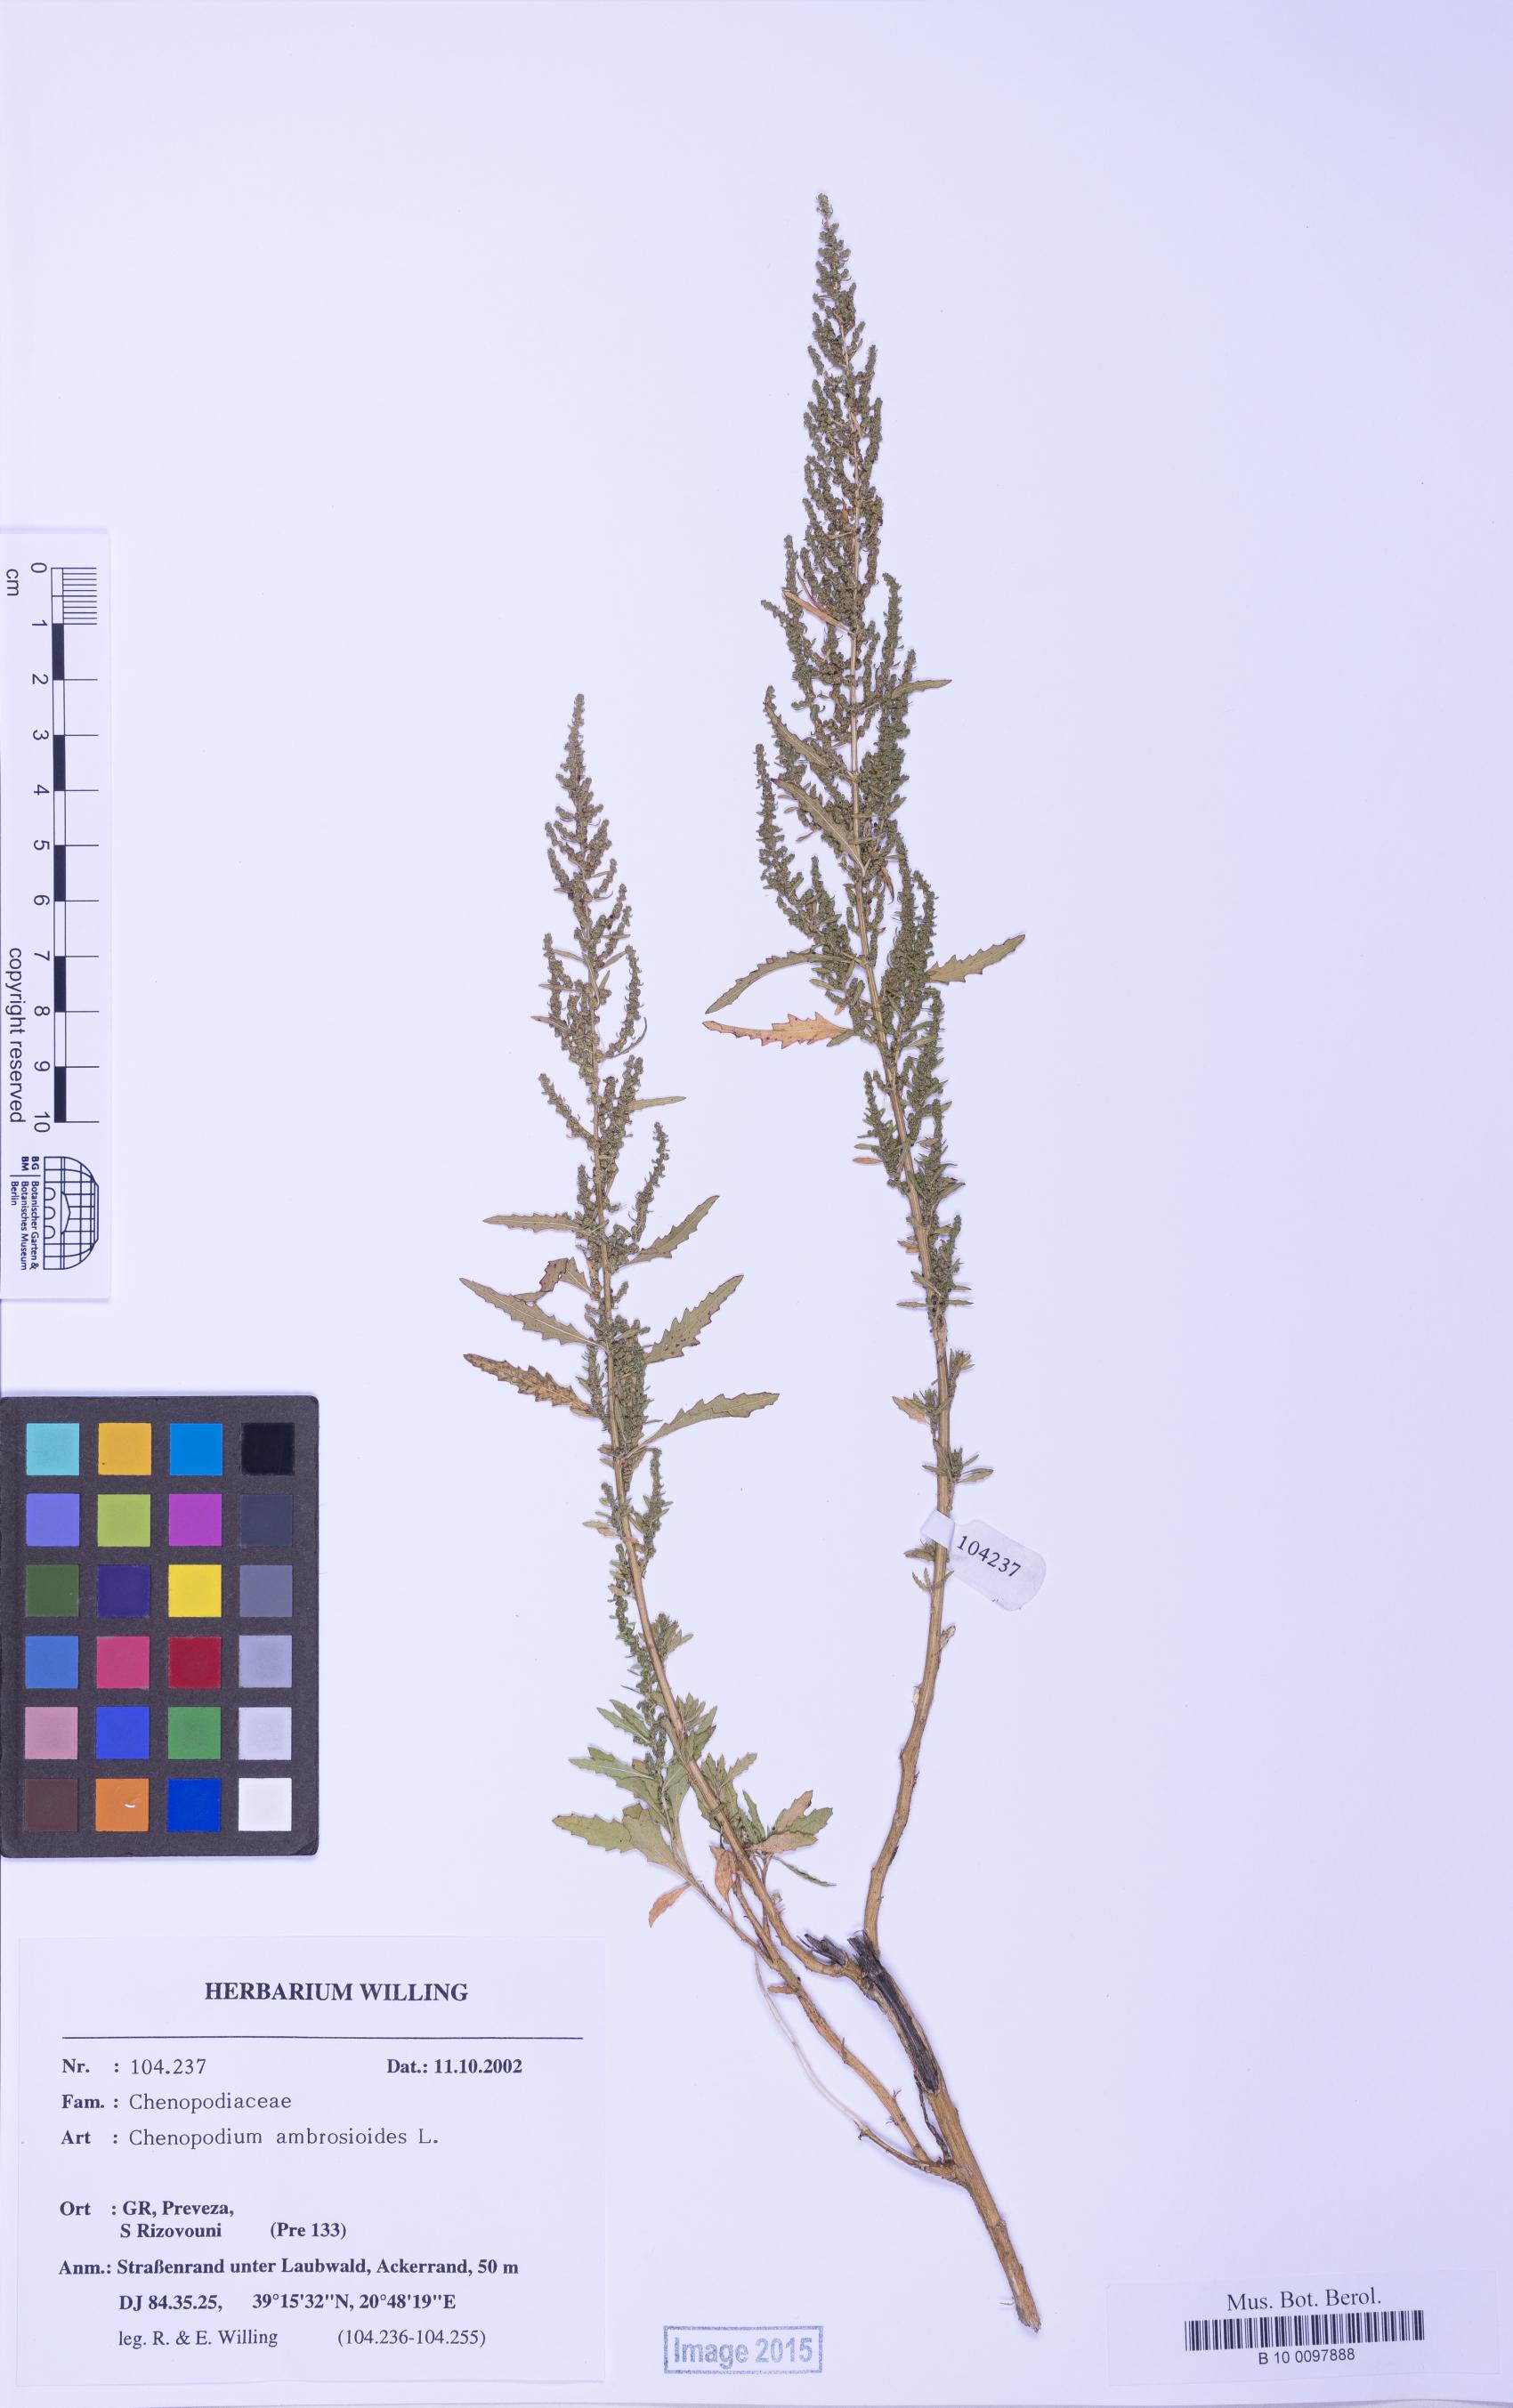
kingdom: Plantae
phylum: Tracheophyta
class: Magnoliopsida
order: Caryophyllales
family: Amaranthaceae
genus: Dysphania
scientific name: Dysphania ambrosioides
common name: Wormseed
